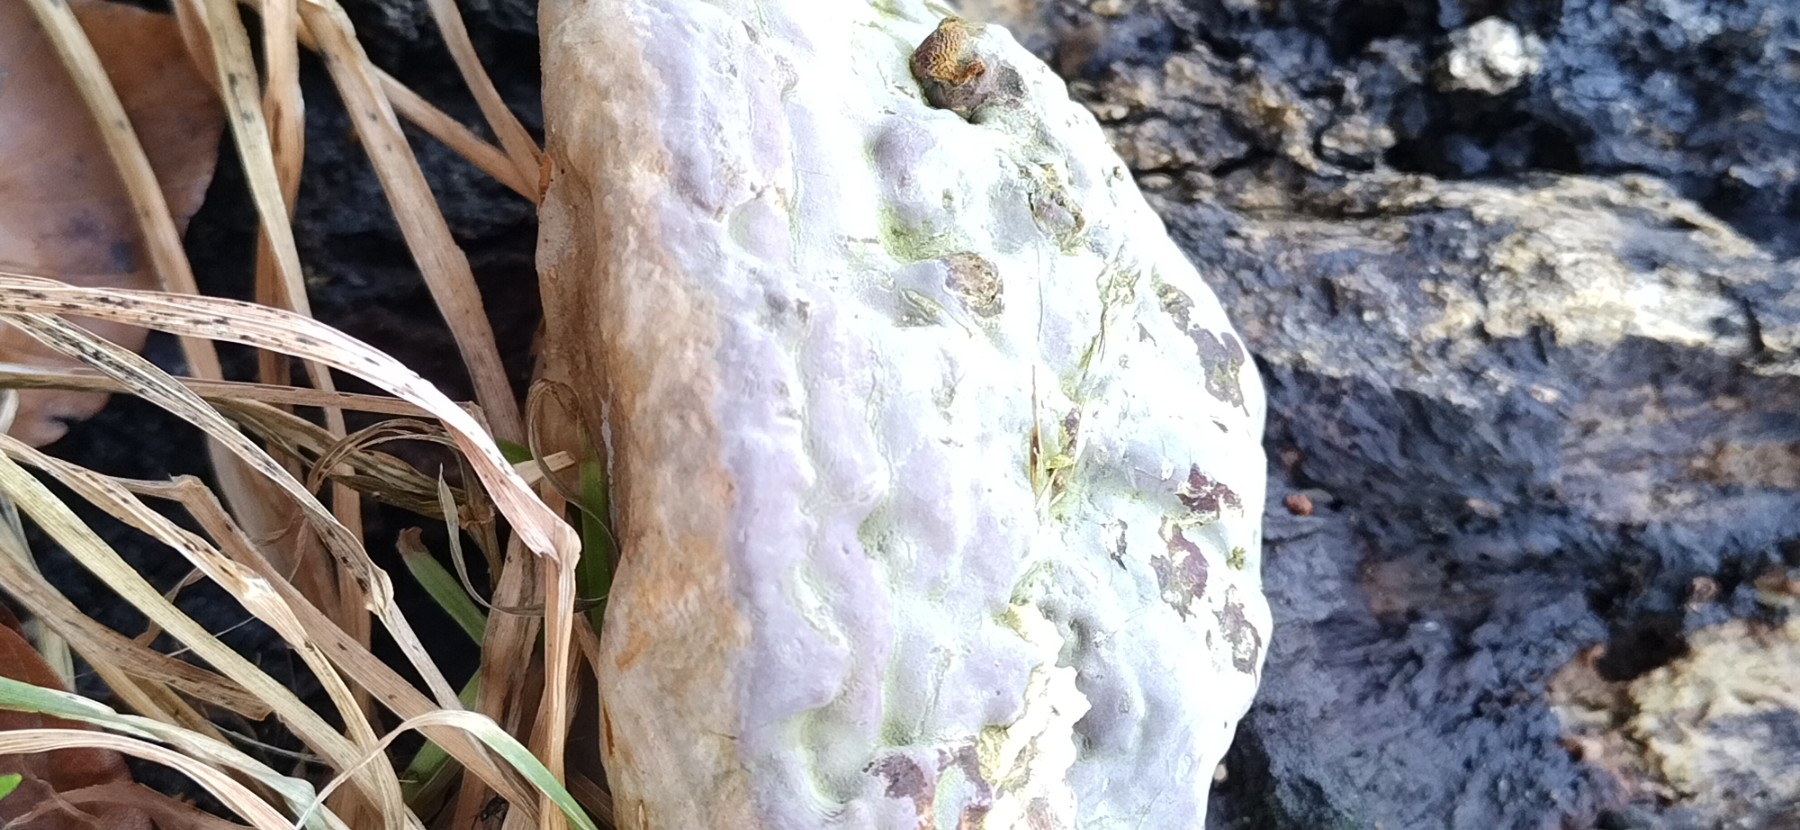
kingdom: Fungi
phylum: Basidiomycota
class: Agaricomycetes
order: Polyporales
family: Polyporaceae
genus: Ganoderma
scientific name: Ganoderma pfeifferi
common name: kobberrød lakporesvamp
